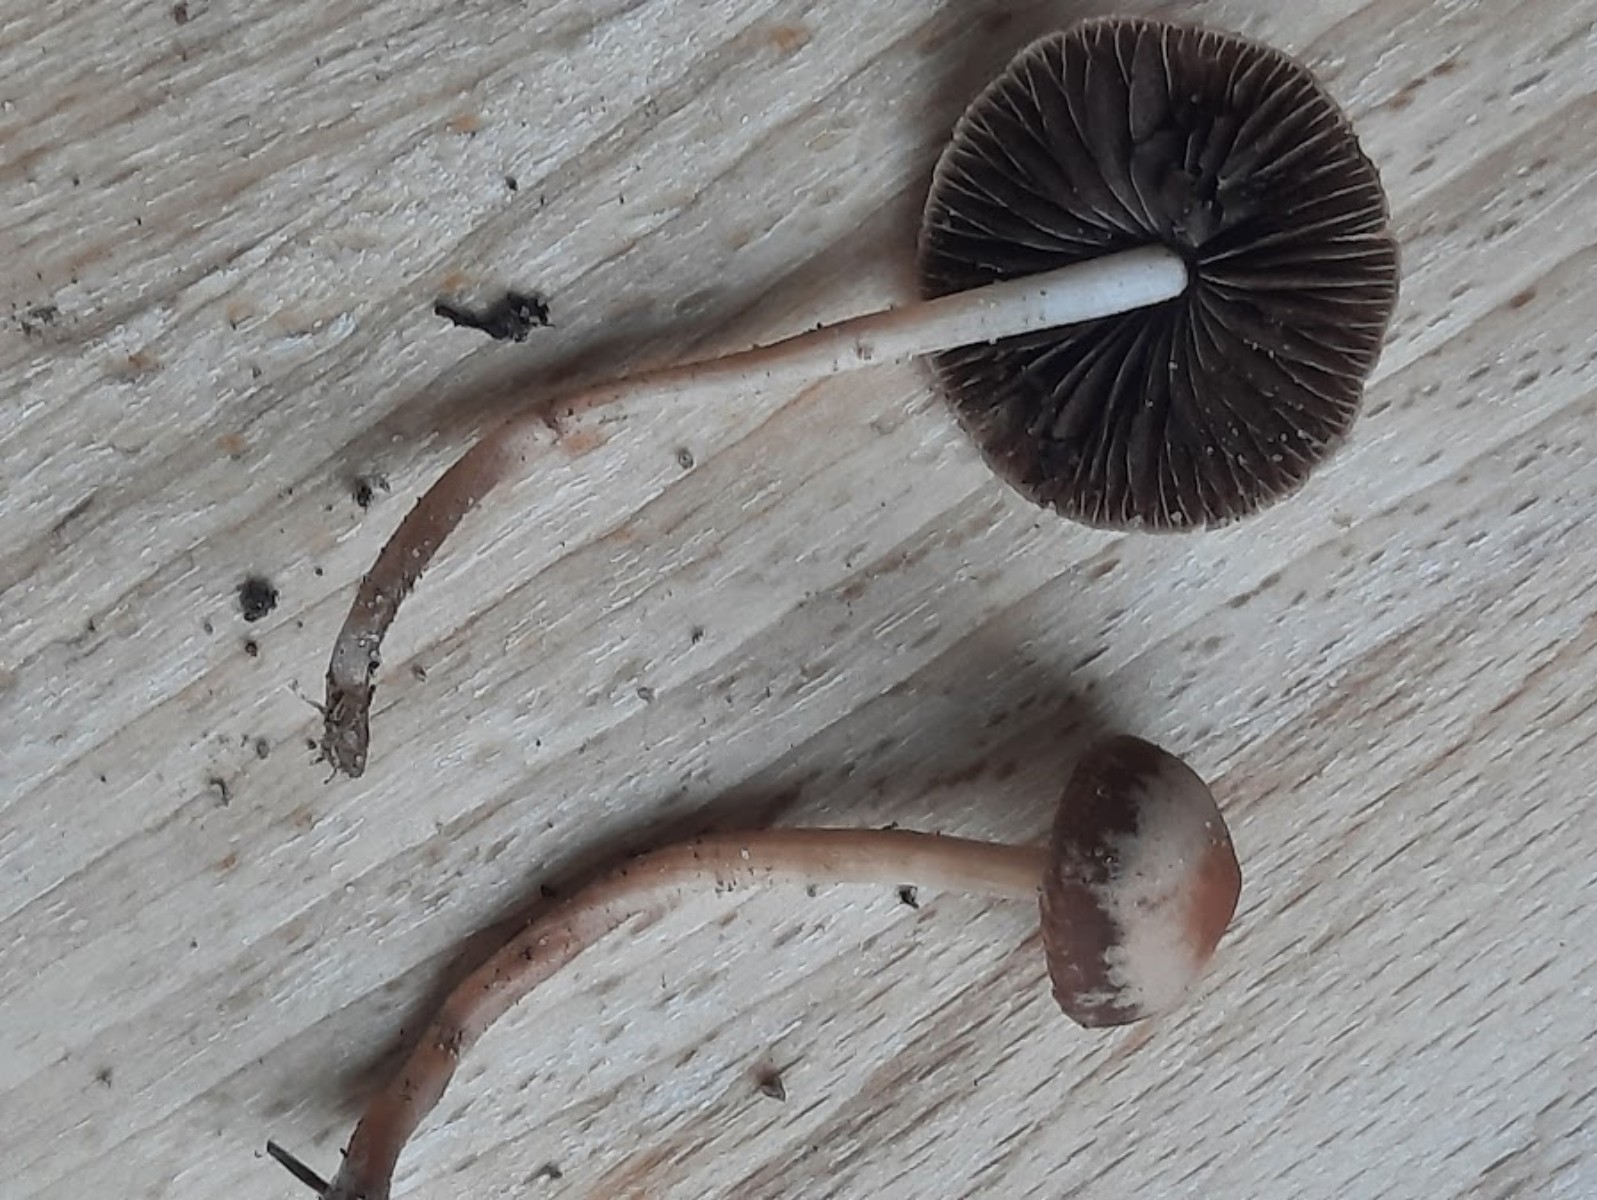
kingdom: Fungi
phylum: Basidiomycota
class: Agaricomycetes
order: Agaricales
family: Bolbitiaceae
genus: Panaeolina
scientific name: Panaeolina foenisecii
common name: høslætsvamp
